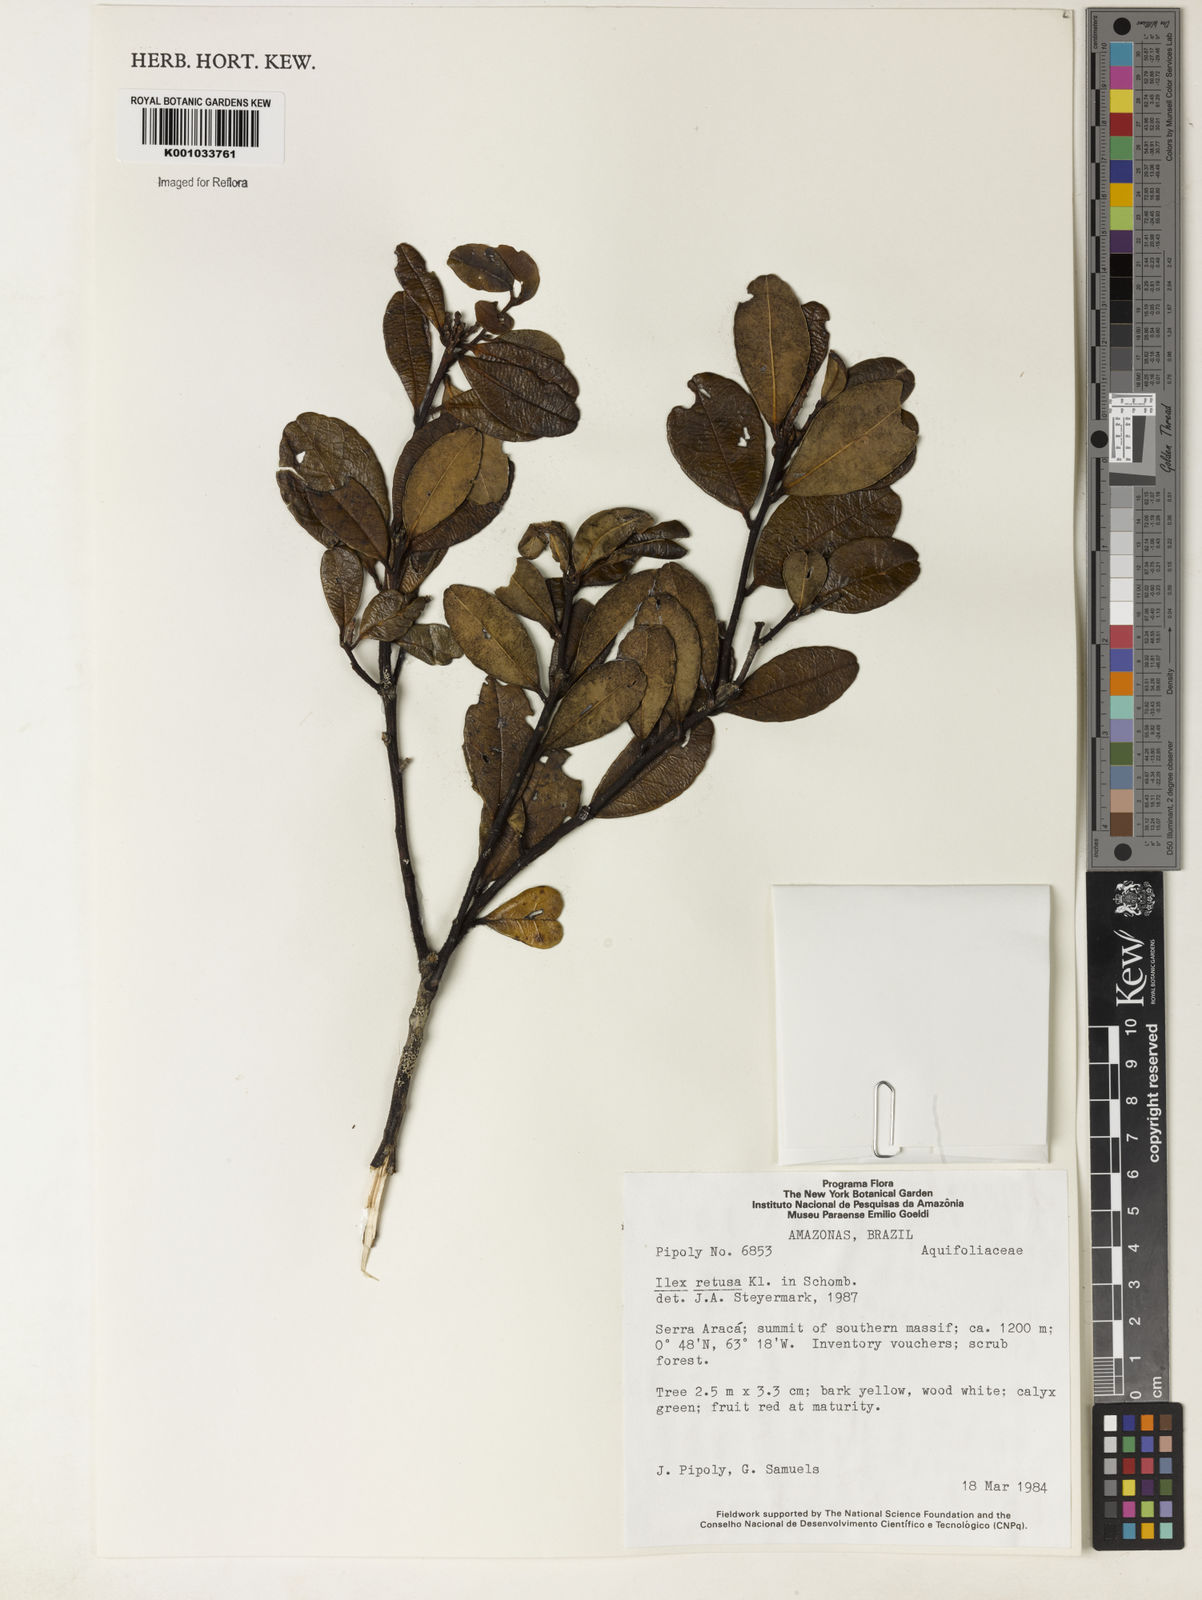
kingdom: Plantae
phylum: Tracheophyta
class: Magnoliopsida
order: Aquifoliales
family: Aquifoliaceae
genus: Ilex
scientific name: Ilex
